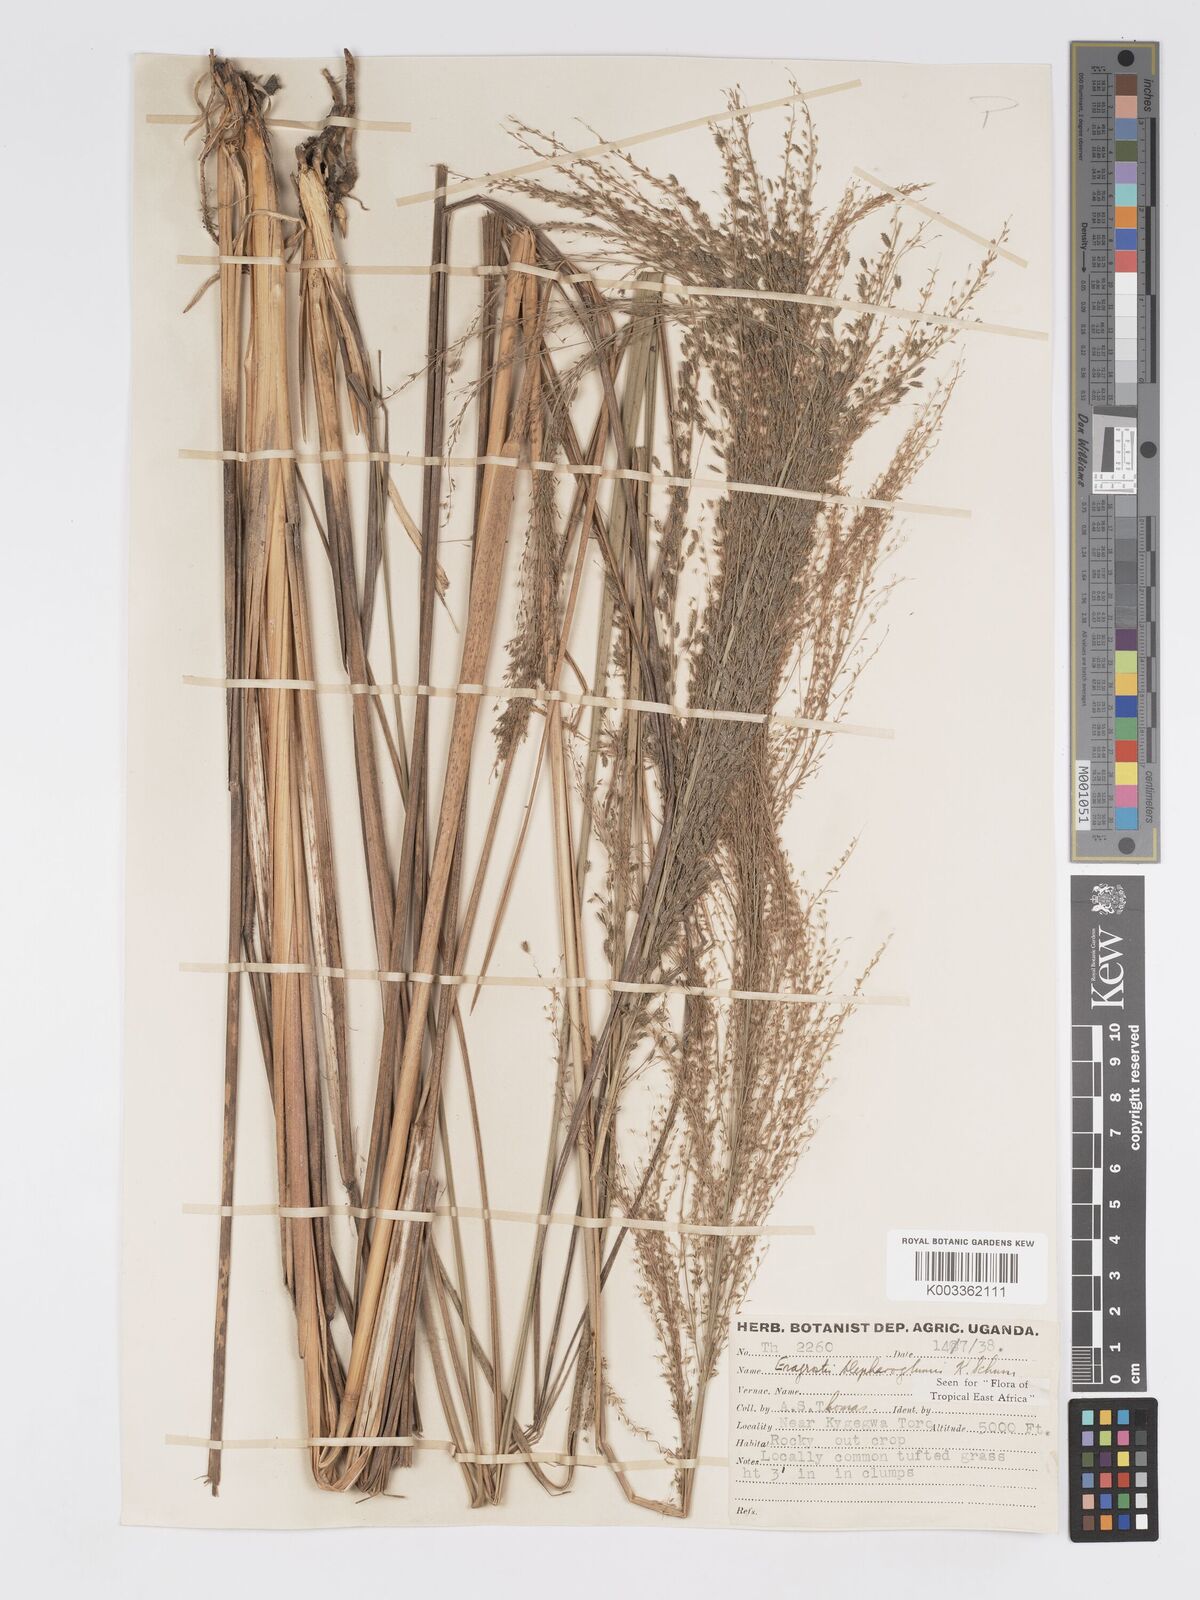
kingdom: Plantae
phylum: Tracheophyta
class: Liliopsida
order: Poales
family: Poaceae
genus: Eragrostis
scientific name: Eragrostis olivacea
